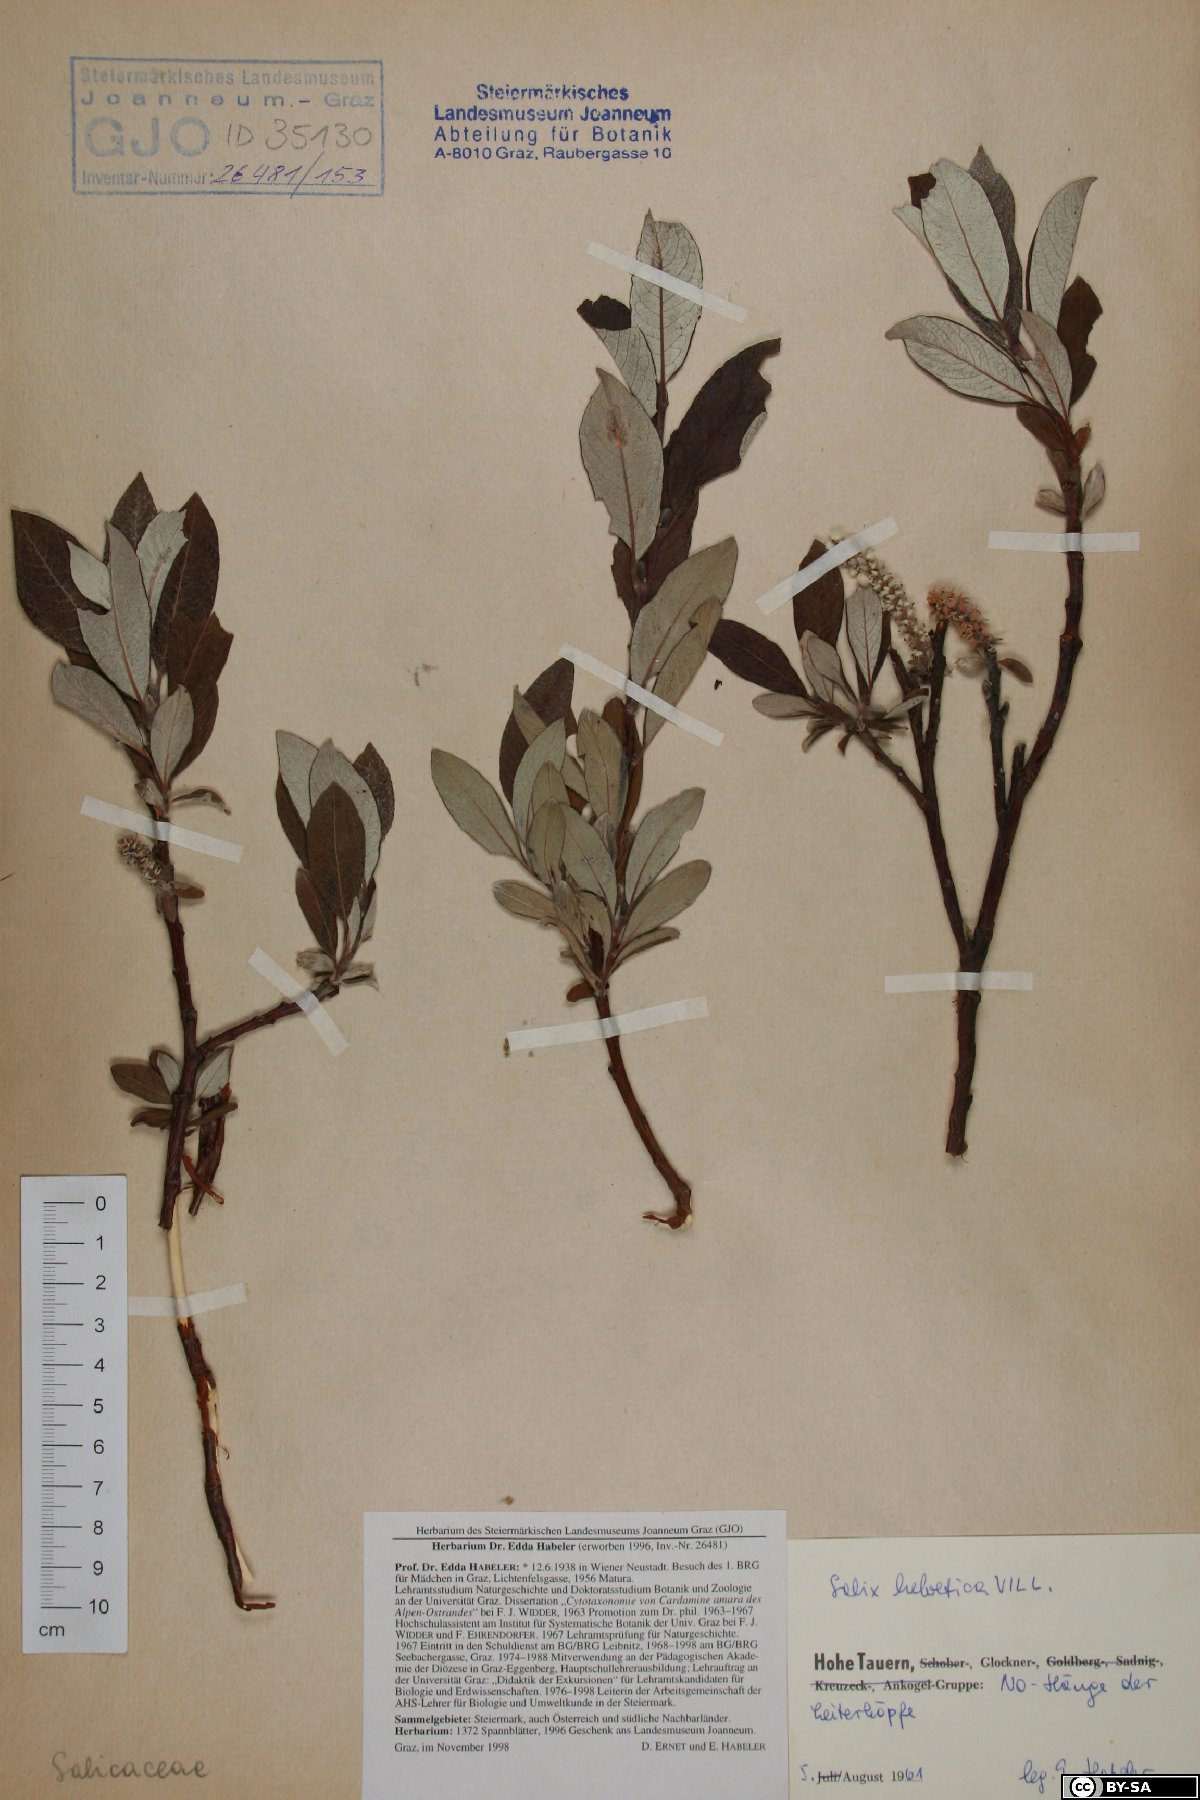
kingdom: Plantae
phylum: Tracheophyta
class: Magnoliopsida
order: Malpighiales
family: Salicaceae
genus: Salix
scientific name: Salix helvetica
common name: Swiss willow
